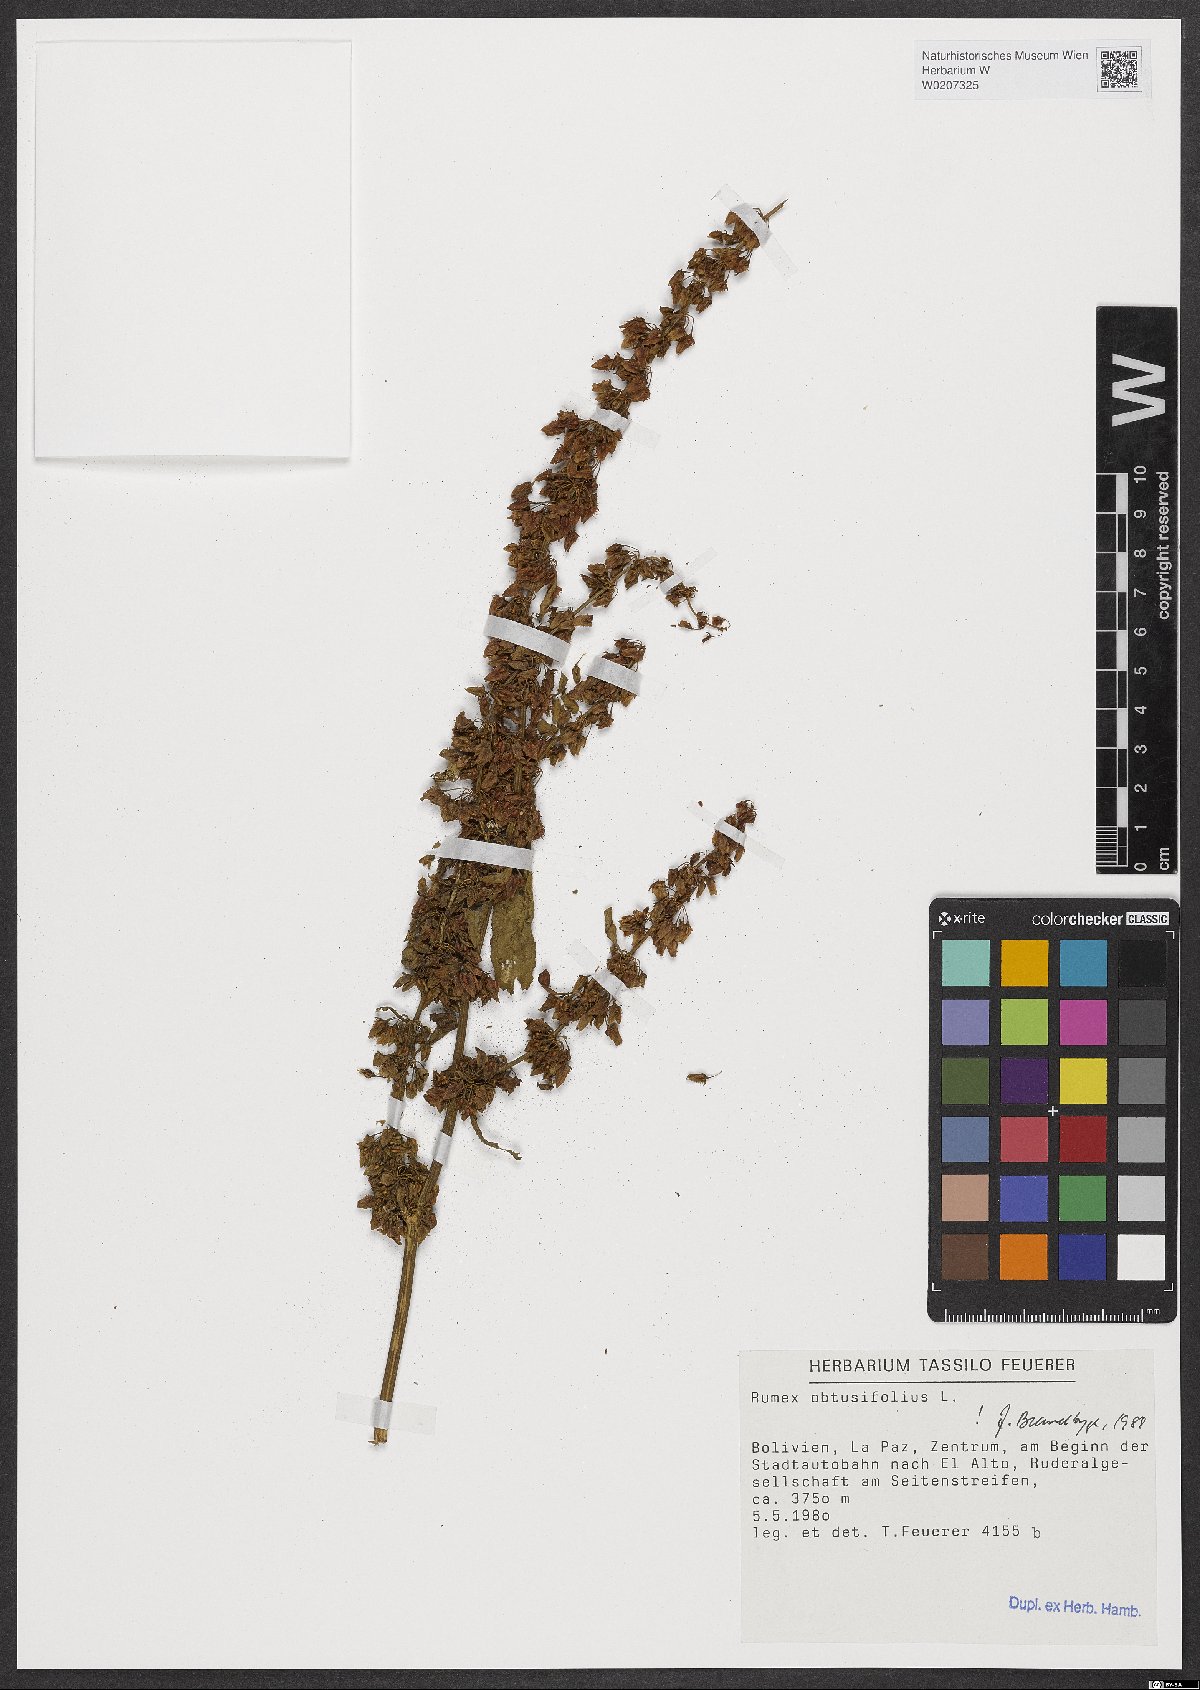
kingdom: Plantae
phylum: Tracheophyta
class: Magnoliopsida
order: Caryophyllales
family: Polygonaceae
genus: Rumex
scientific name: Rumex obtusifolius
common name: Bitter dock
